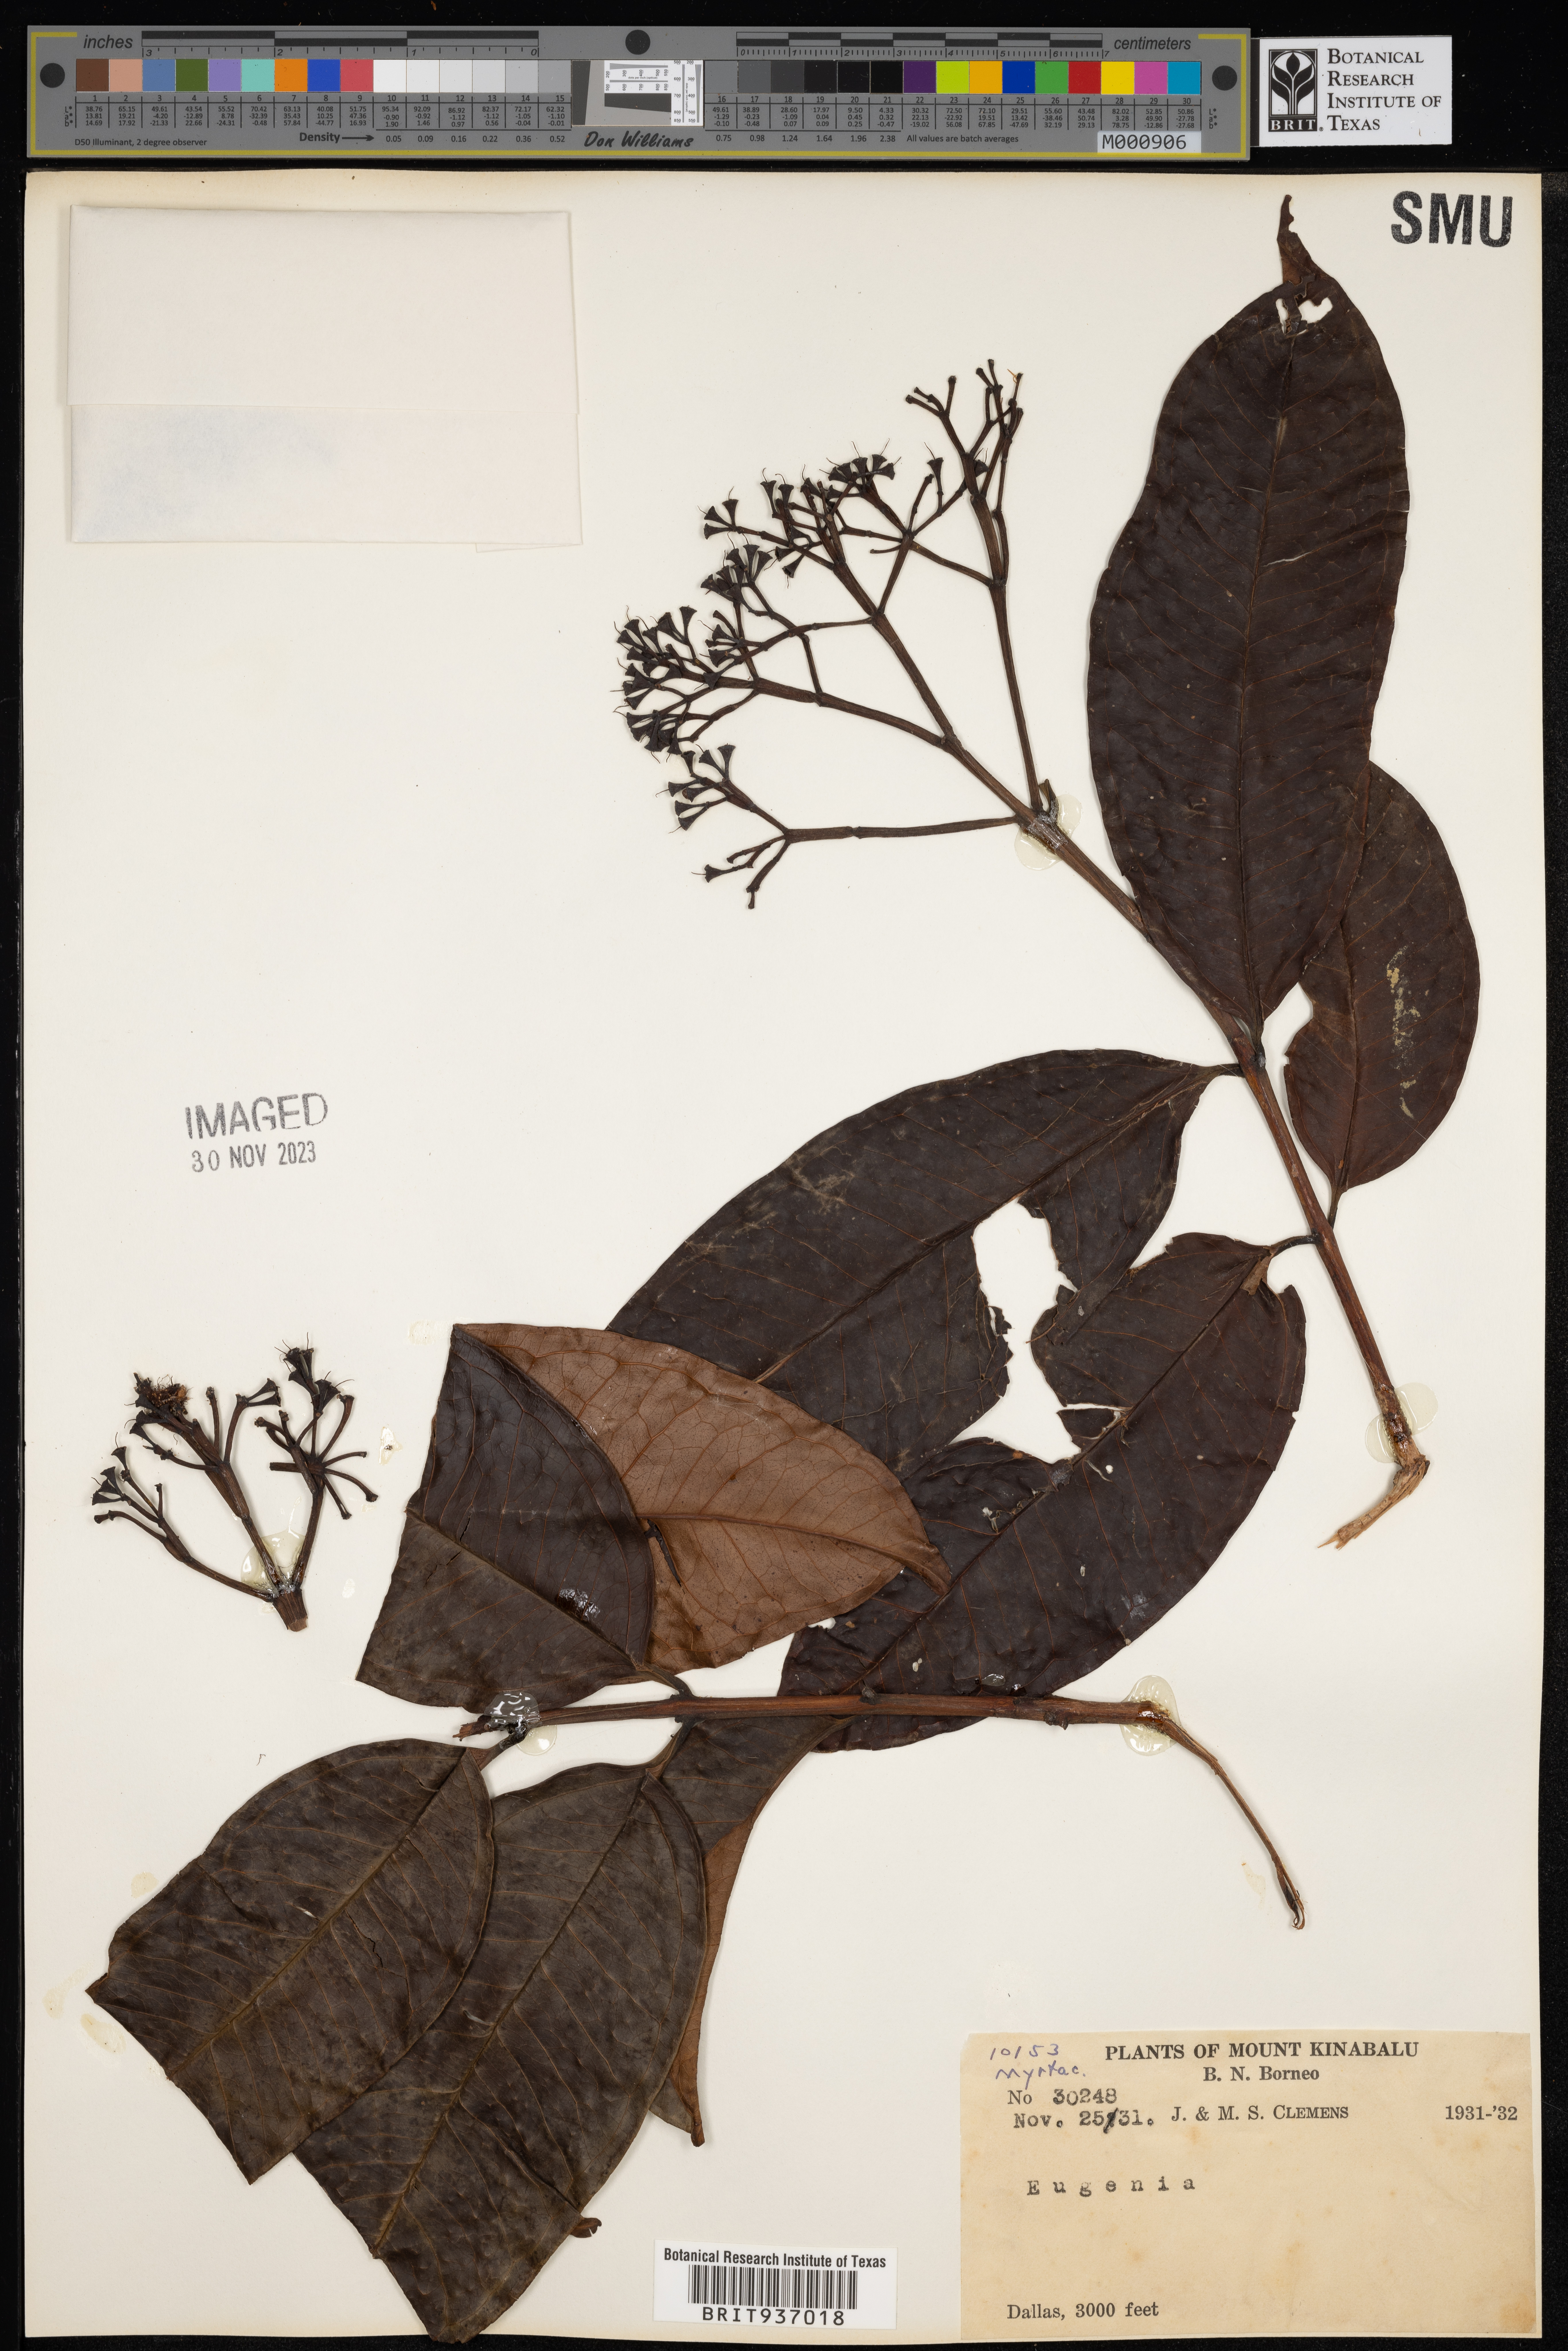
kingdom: Plantae
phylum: Tracheophyta
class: Magnoliopsida
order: Myrtales
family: Myrtaceae
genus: Eugenia
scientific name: Eugenia
